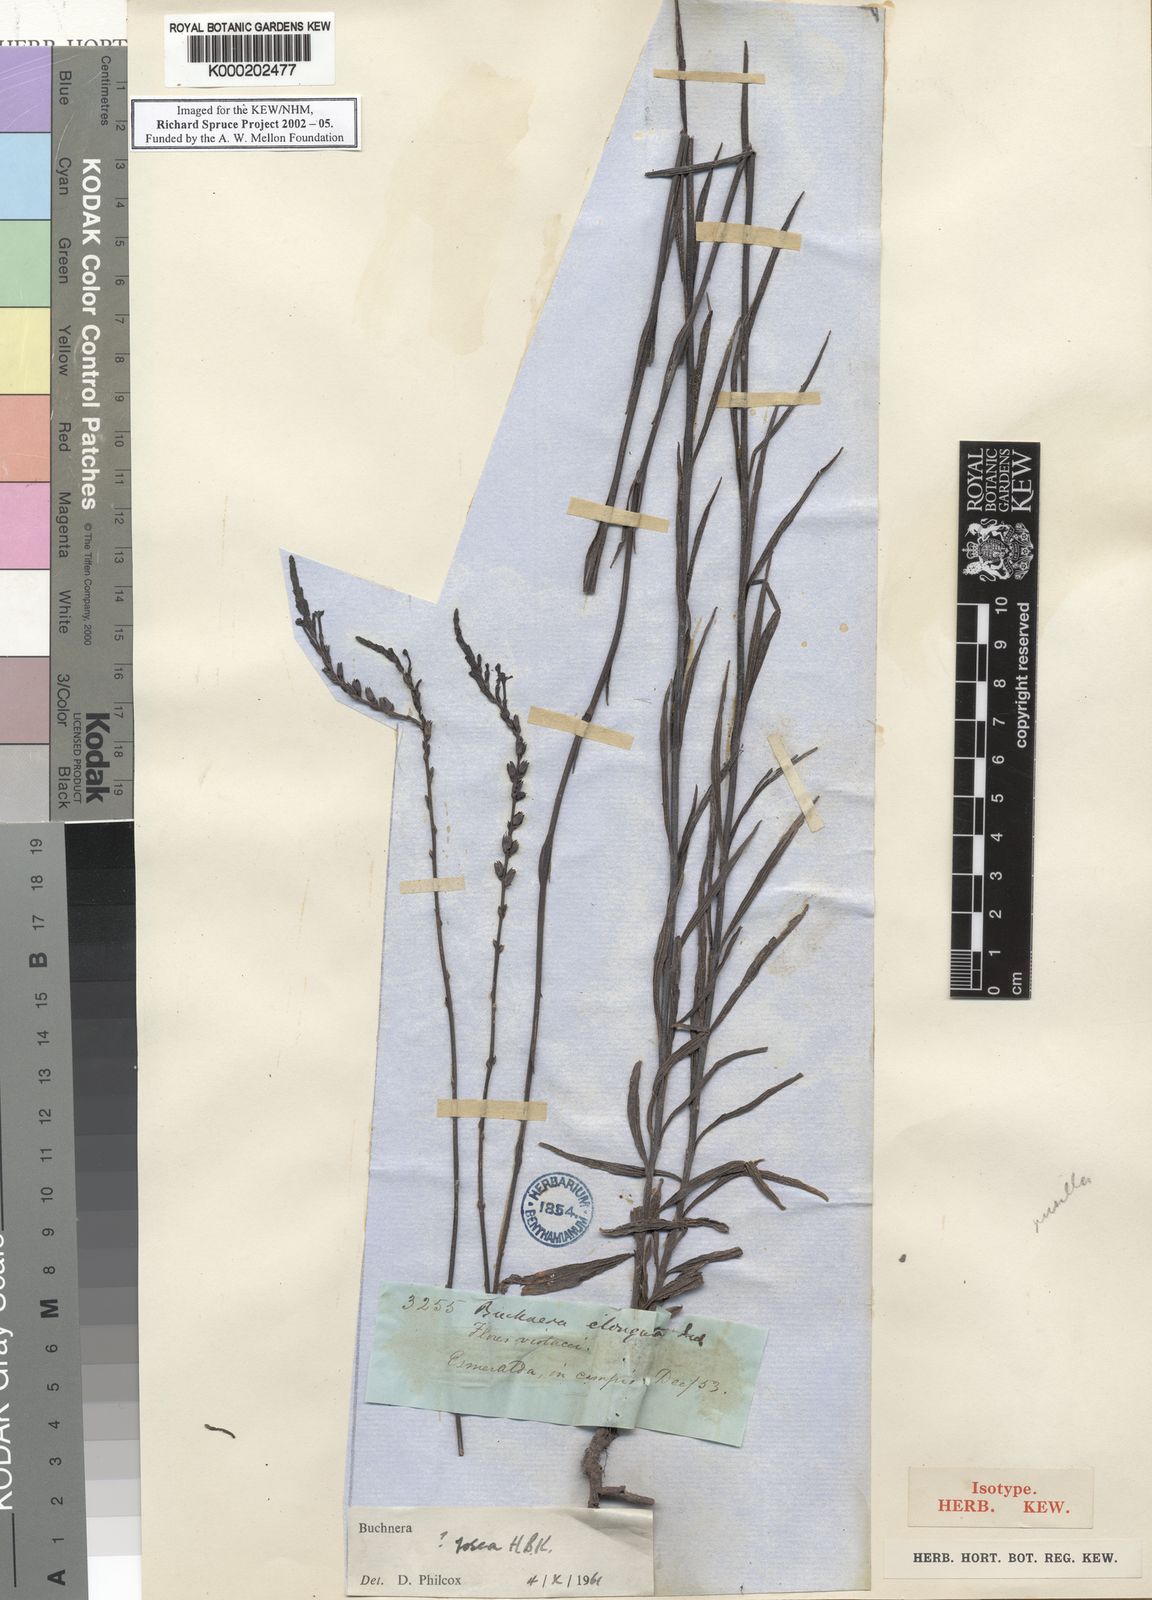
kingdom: Plantae
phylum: Tracheophyta
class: Magnoliopsida
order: Lamiales
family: Orobanchaceae
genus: Buchnera
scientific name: Buchnera spruceana
